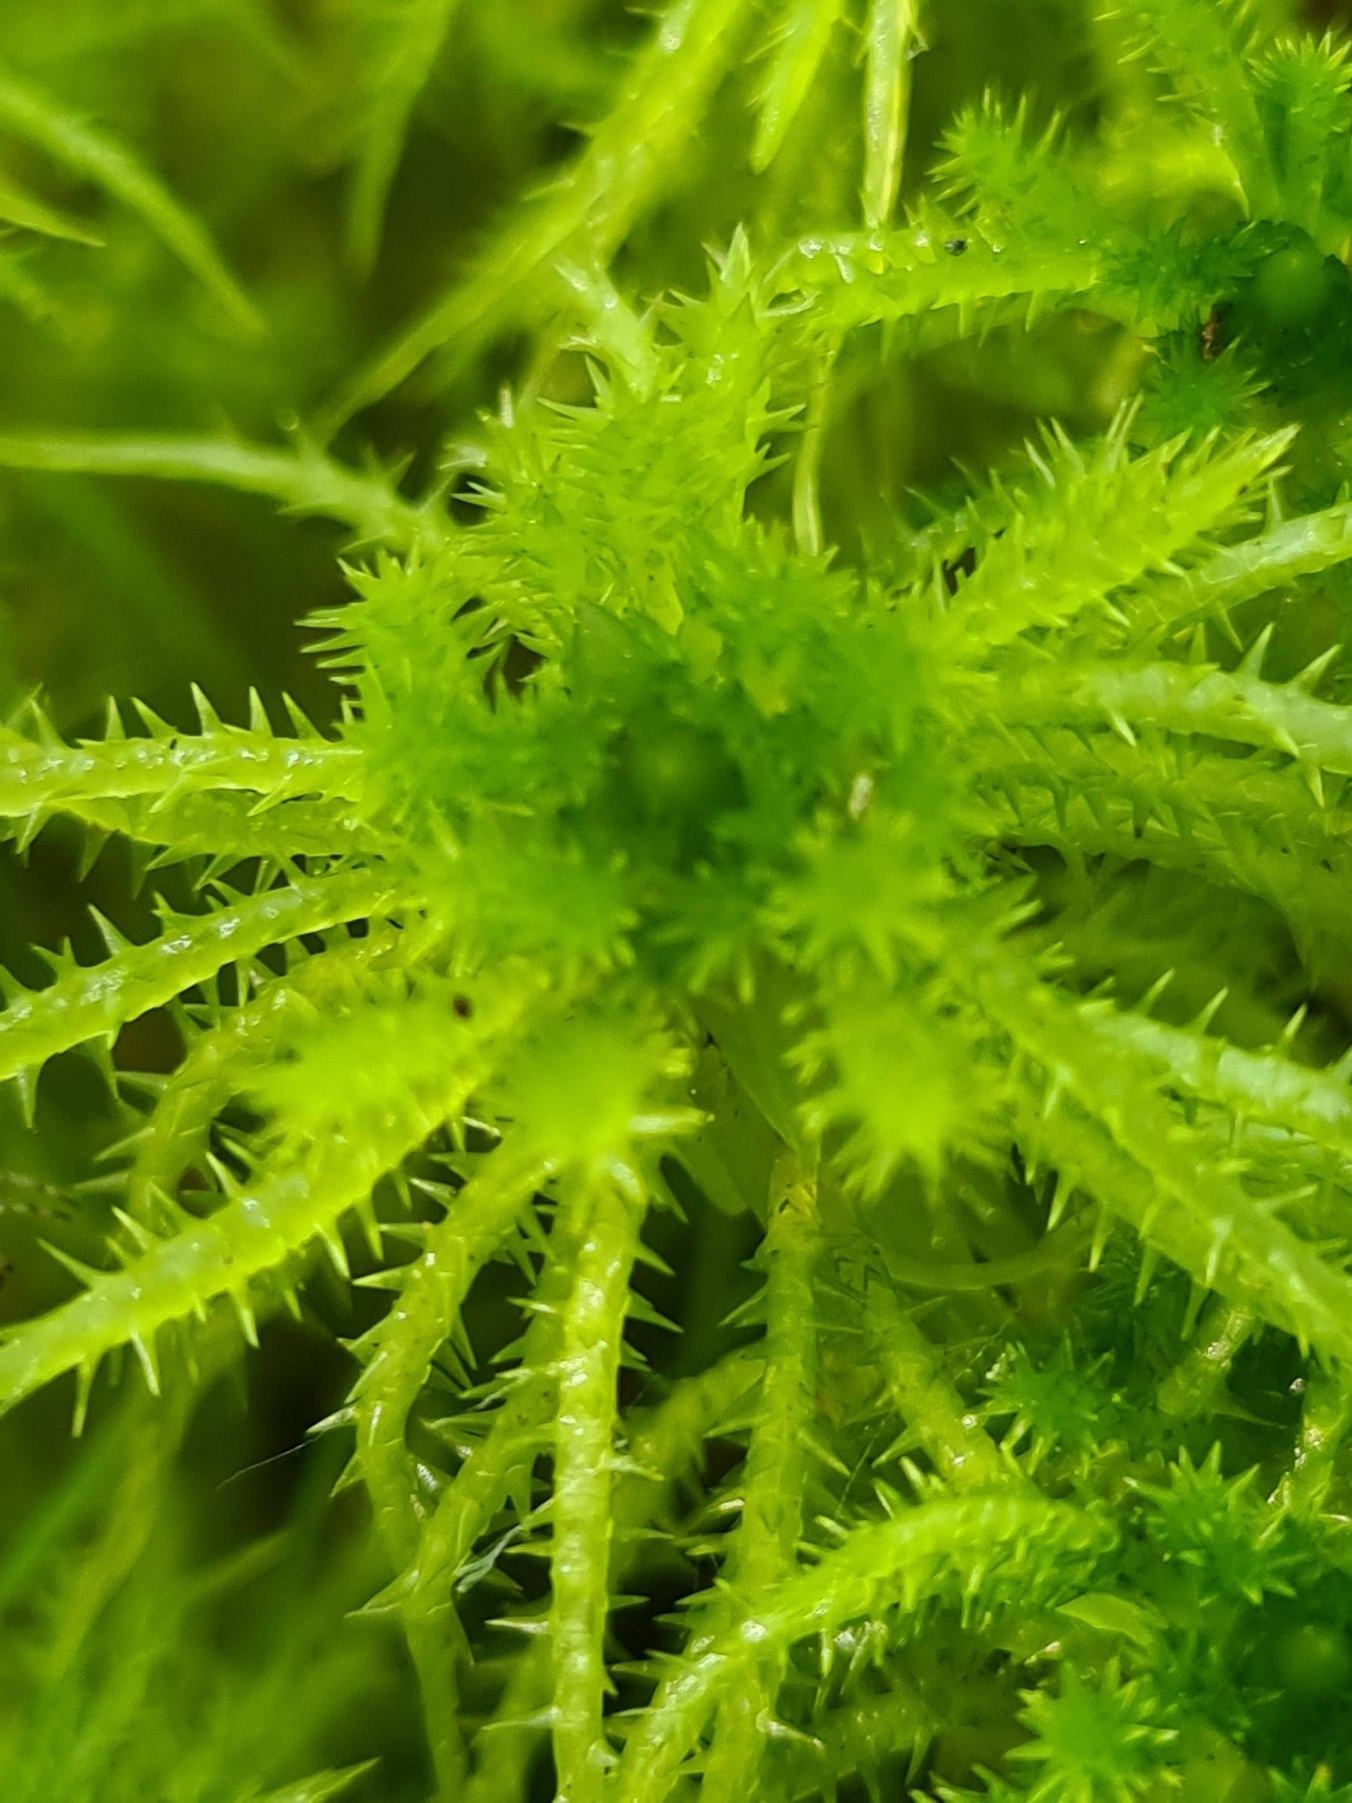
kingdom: Plantae
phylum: Bryophyta
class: Sphagnopsida
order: Sphagnales
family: Sphagnaceae
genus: Sphagnum
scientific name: Sphagnum squarrosum
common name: Udspærret tørvemos
